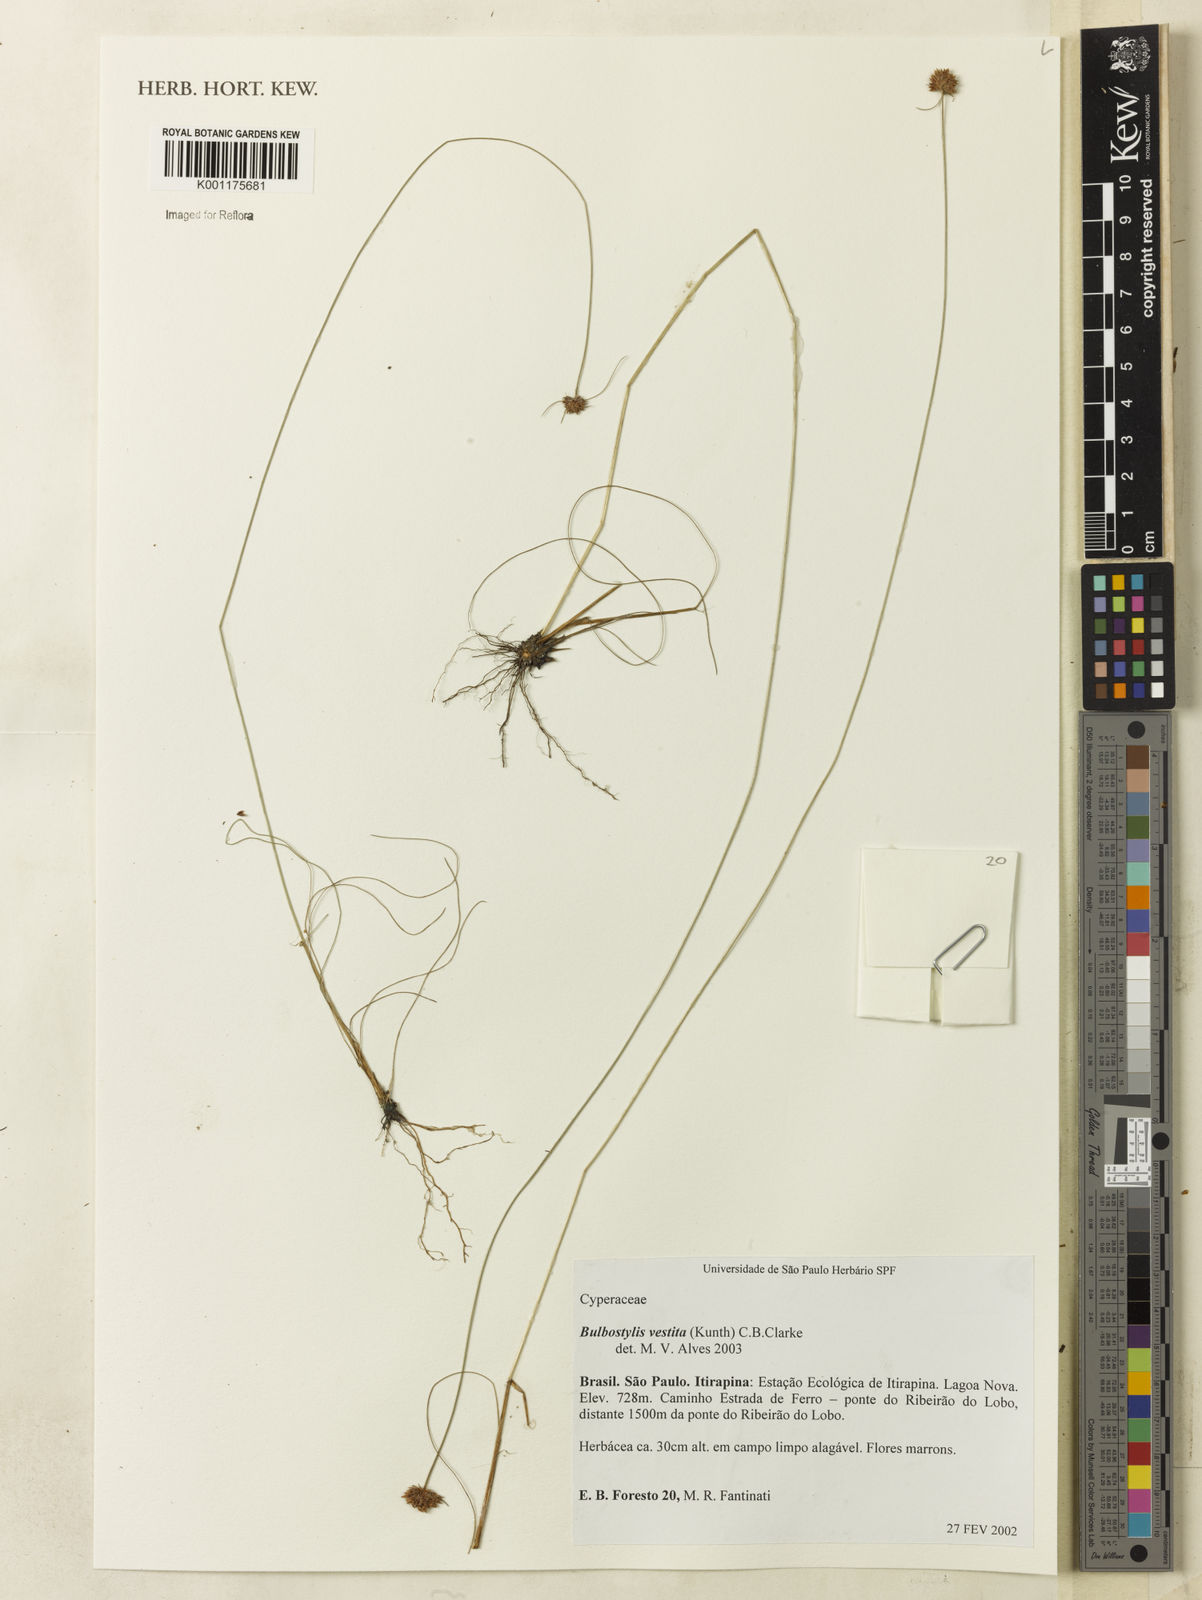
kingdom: Plantae
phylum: Tracheophyta
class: Liliopsida
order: Poales
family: Cyperaceae
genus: Bulbostylis
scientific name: Bulbostylis vestita
